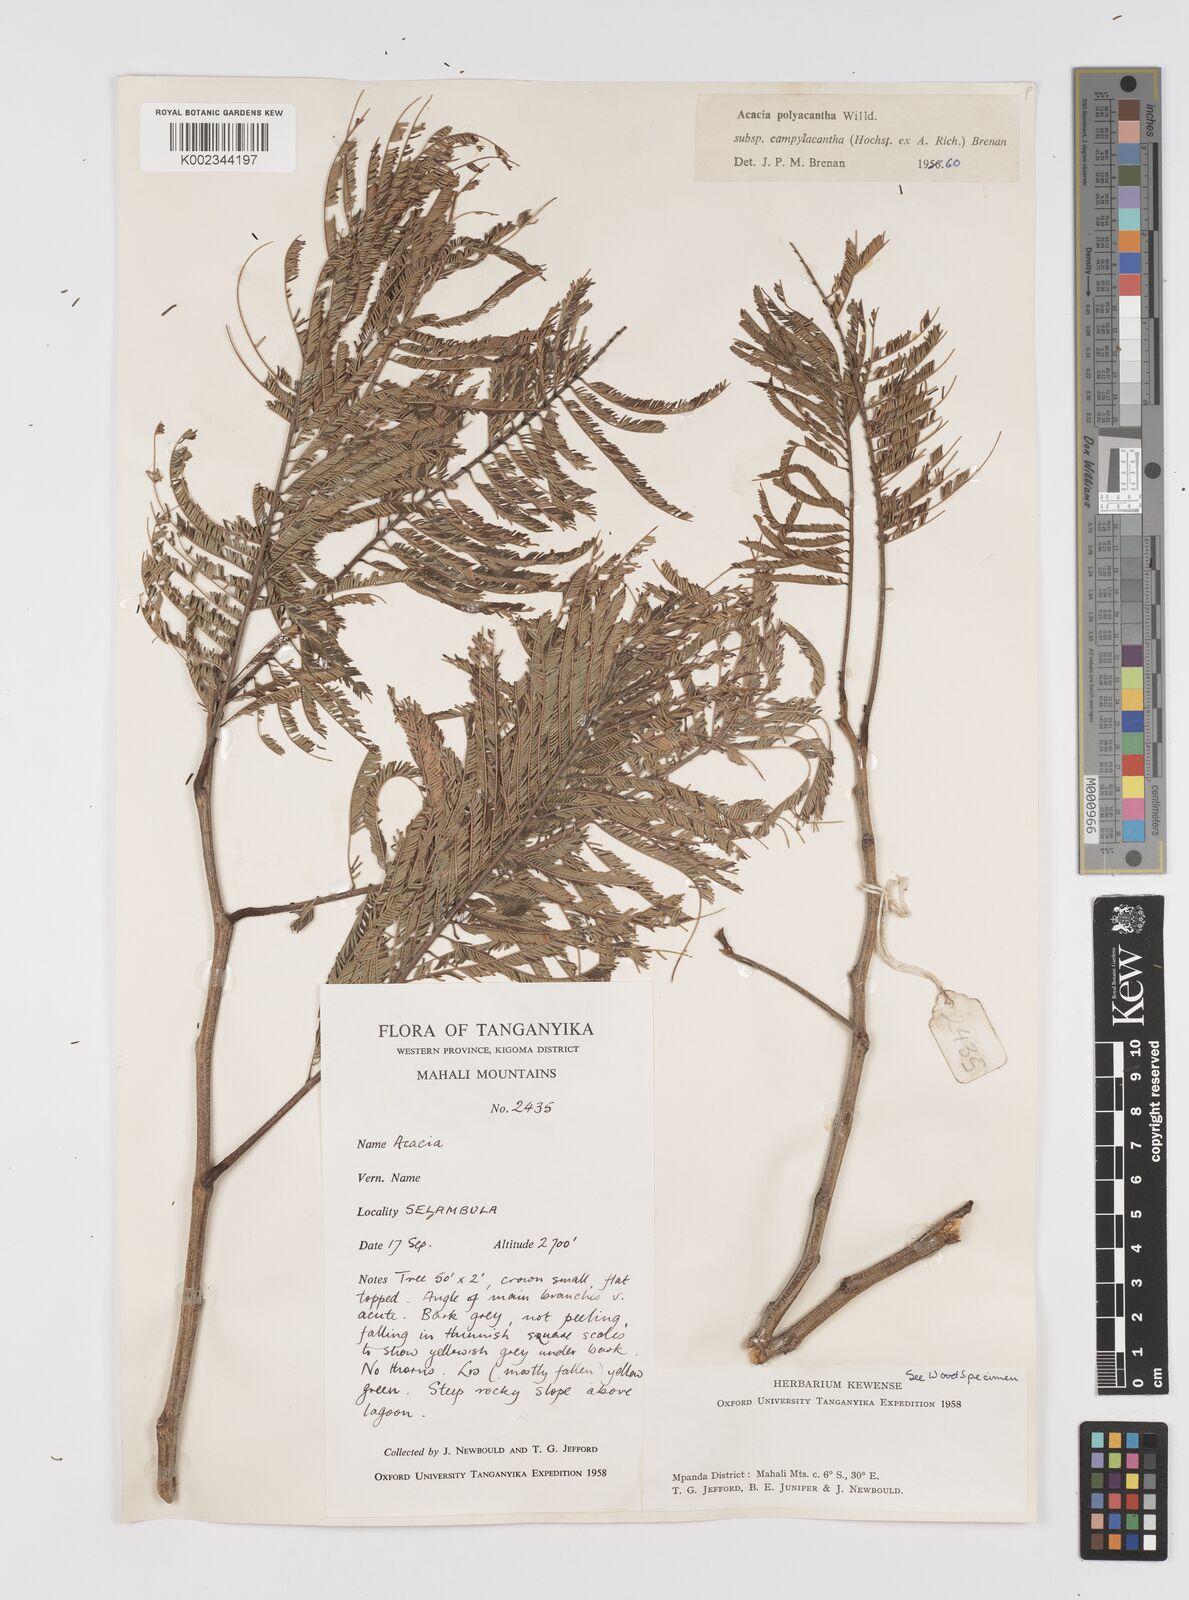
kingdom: Plantae
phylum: Tracheophyta
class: Magnoliopsida
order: Fabales
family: Fabaceae
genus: Senegalia
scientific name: Senegalia polyacantha
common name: Whitethorn
